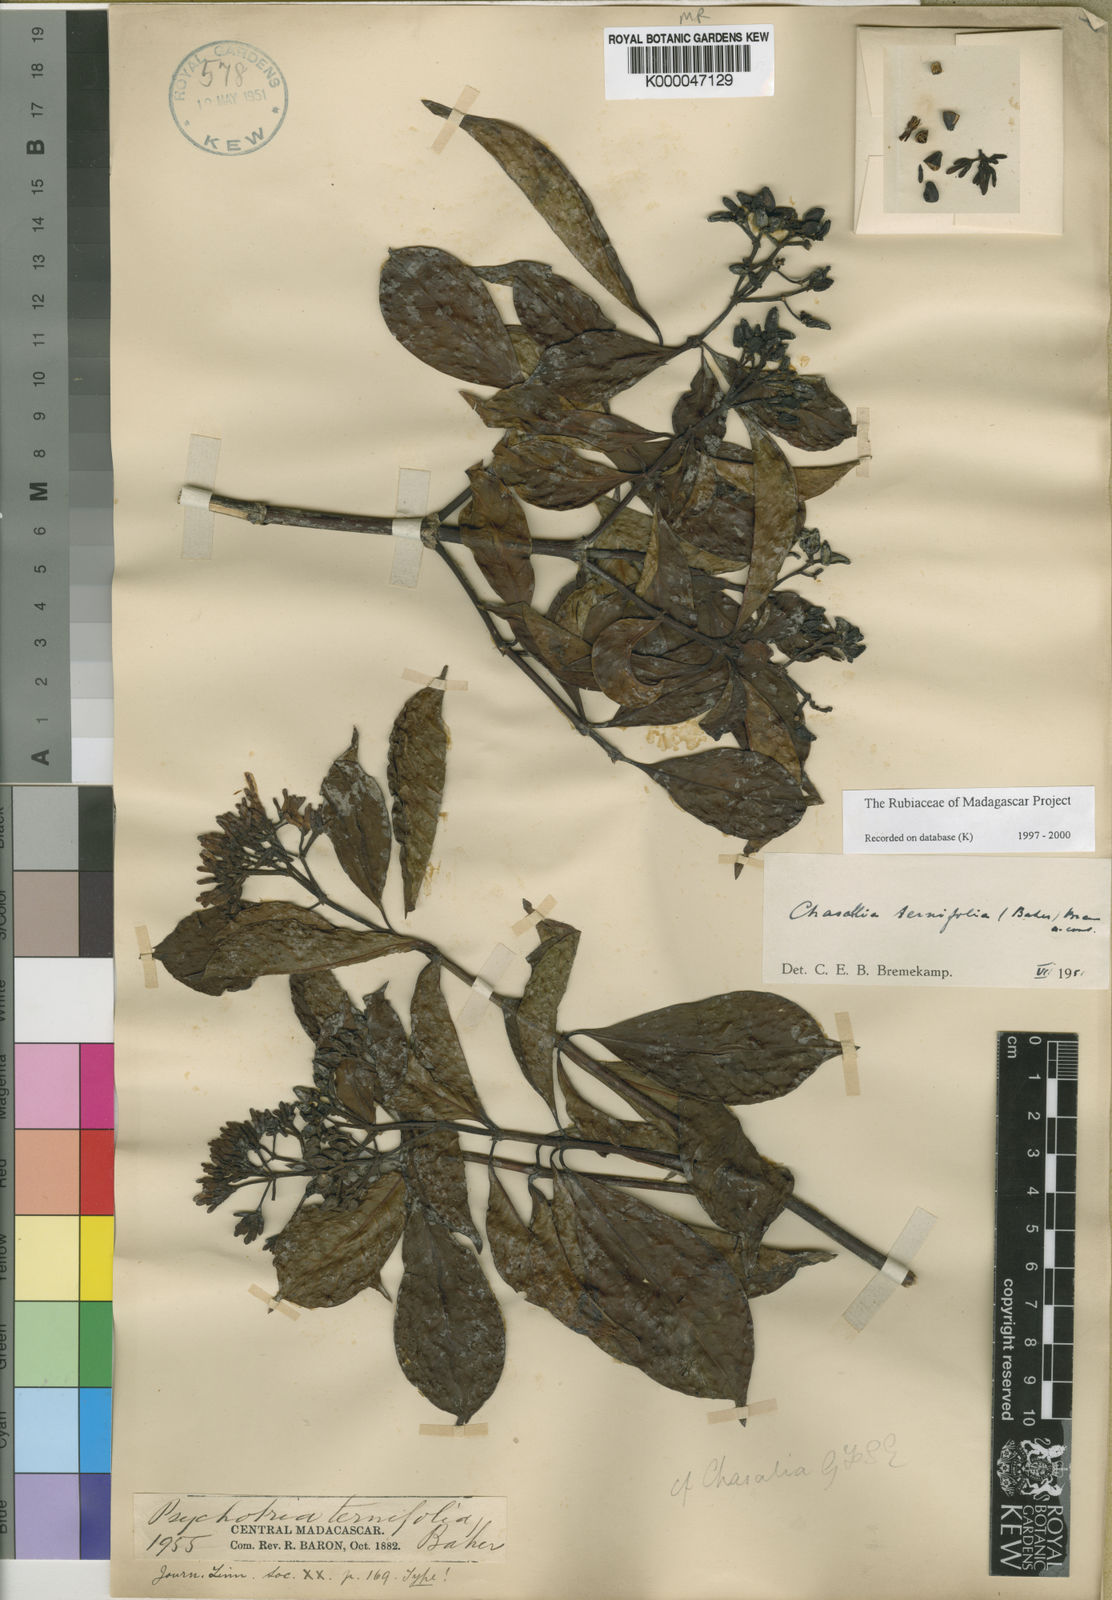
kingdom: Plantae
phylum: Tracheophyta
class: Magnoliopsida
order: Gentianales
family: Rubiaceae
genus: Chassalia
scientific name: Chassalia ternifolia
